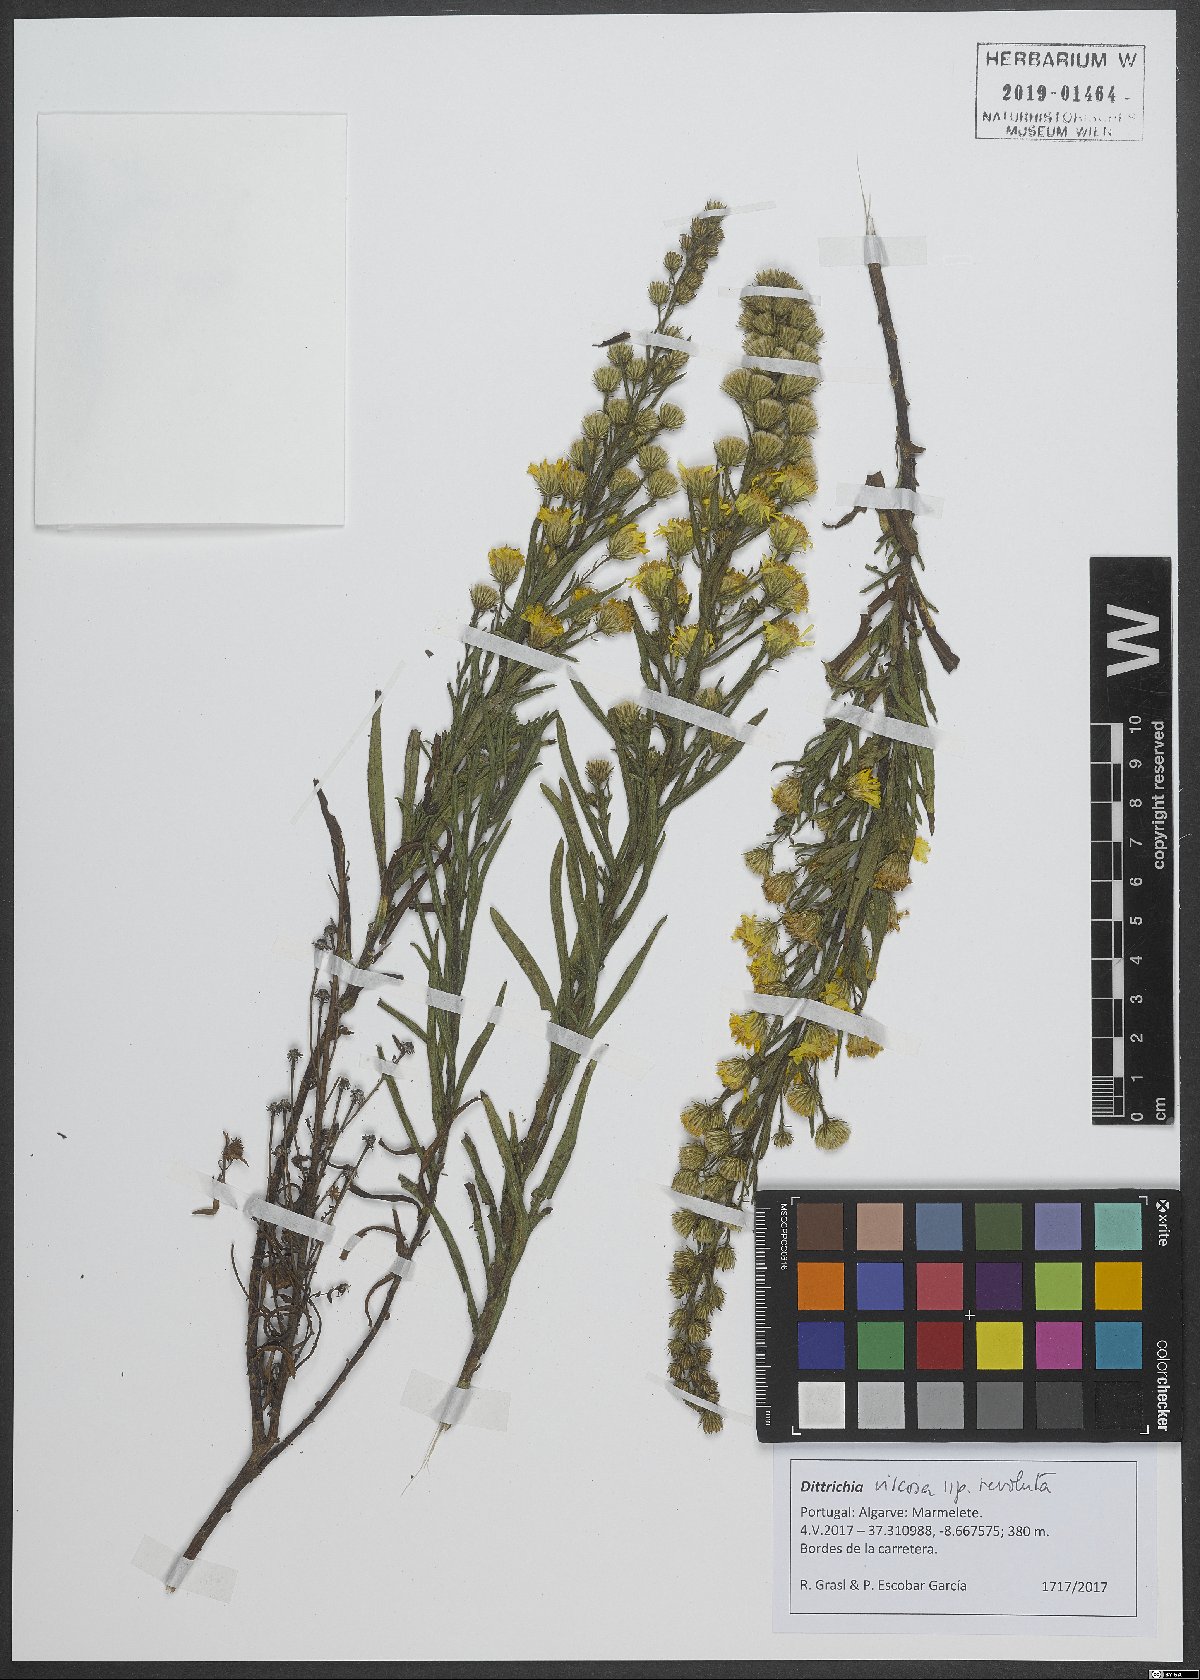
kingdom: Plantae
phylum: Tracheophyta
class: Magnoliopsida
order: Asterales
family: Asteraceae
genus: Dittrichia
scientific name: Dittrichia viscosa
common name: Woody fleabane
